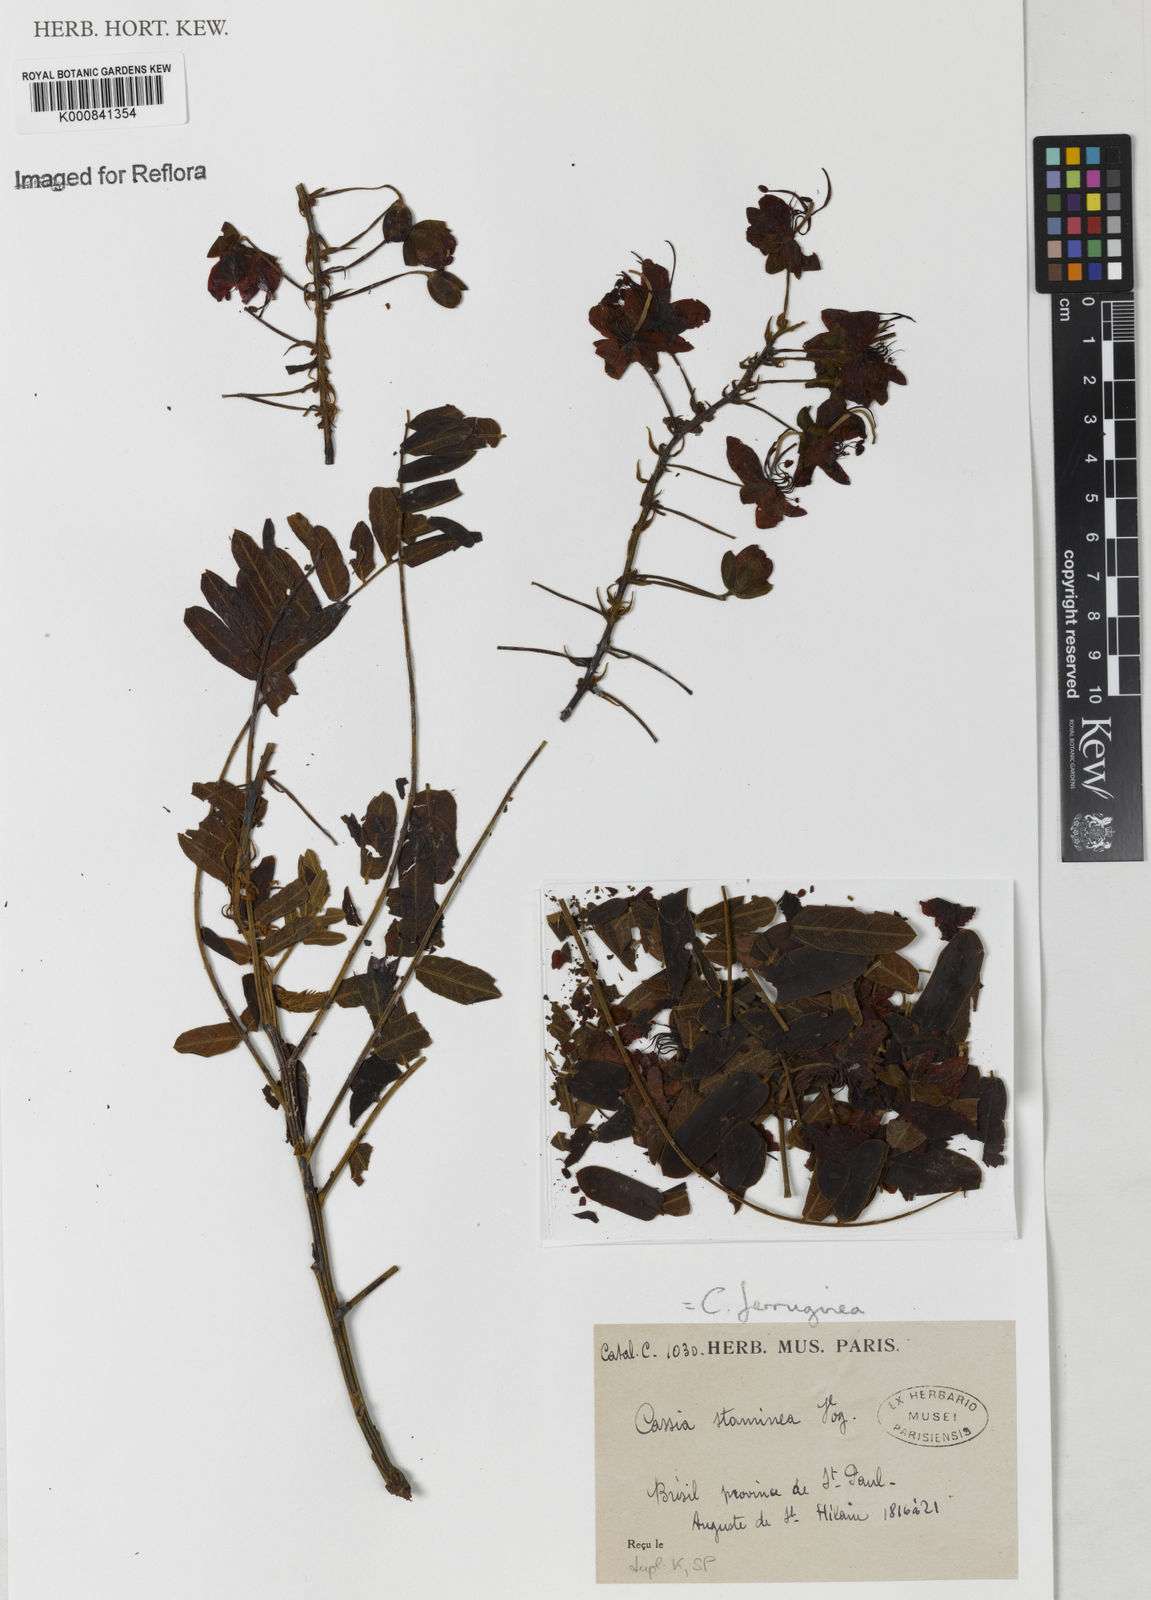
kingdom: Plantae
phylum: Tracheophyta
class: Magnoliopsida
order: Fabales
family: Fabaceae
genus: Cassia
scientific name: Cassia ferruginea
